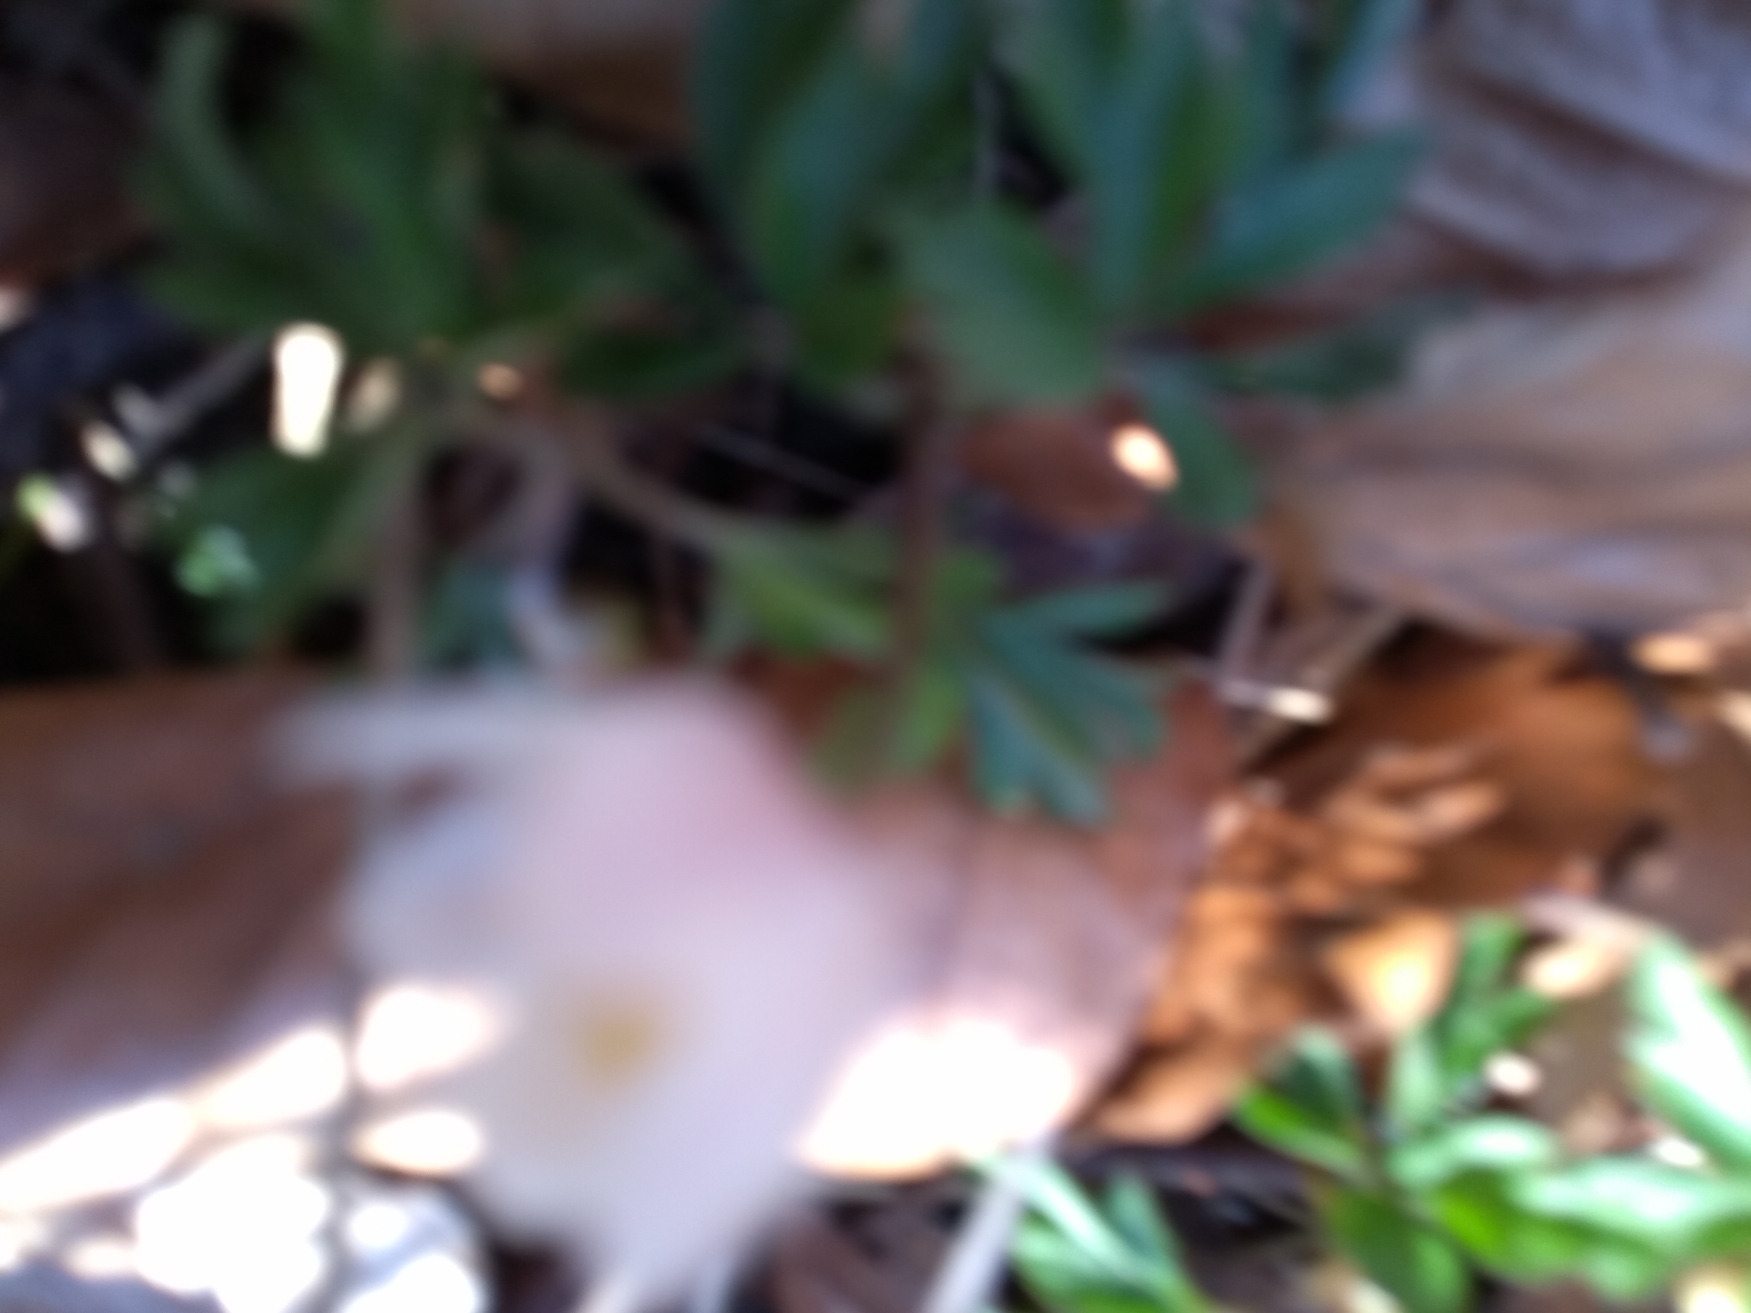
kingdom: Plantae
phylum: Tracheophyta
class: Magnoliopsida
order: Ranunculales
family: Ranunculaceae
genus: Anemone
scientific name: Anemone nemorosa
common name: Hvid anemone
